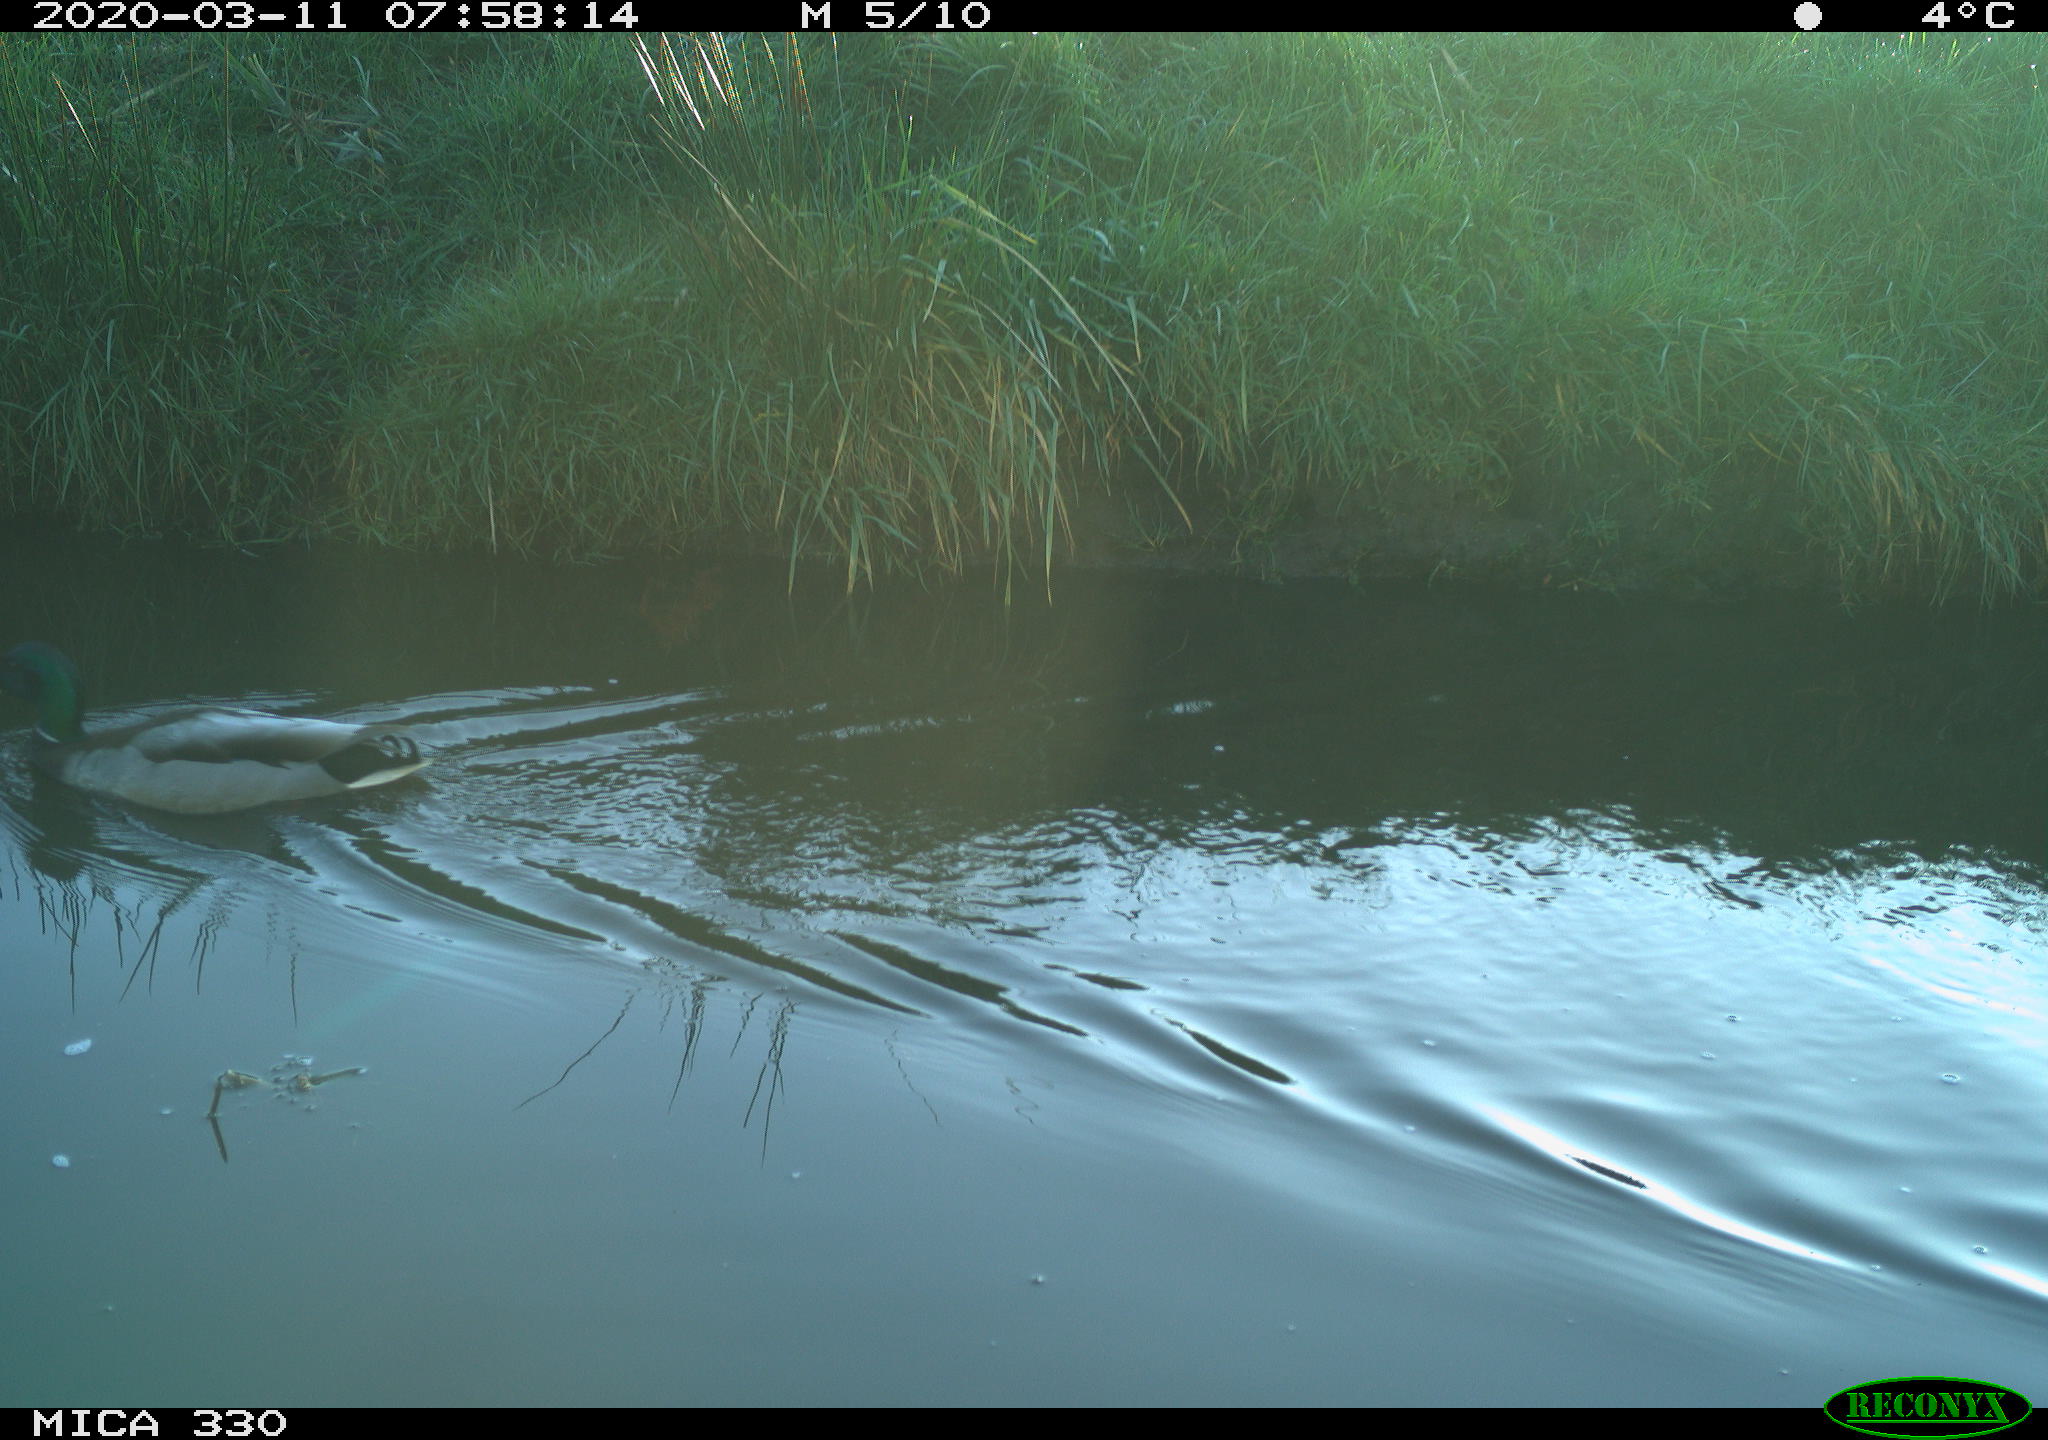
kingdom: Animalia
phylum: Chordata
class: Aves
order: Anseriformes
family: Anatidae
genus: Anas
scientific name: Anas platyrhynchos
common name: Mallard
